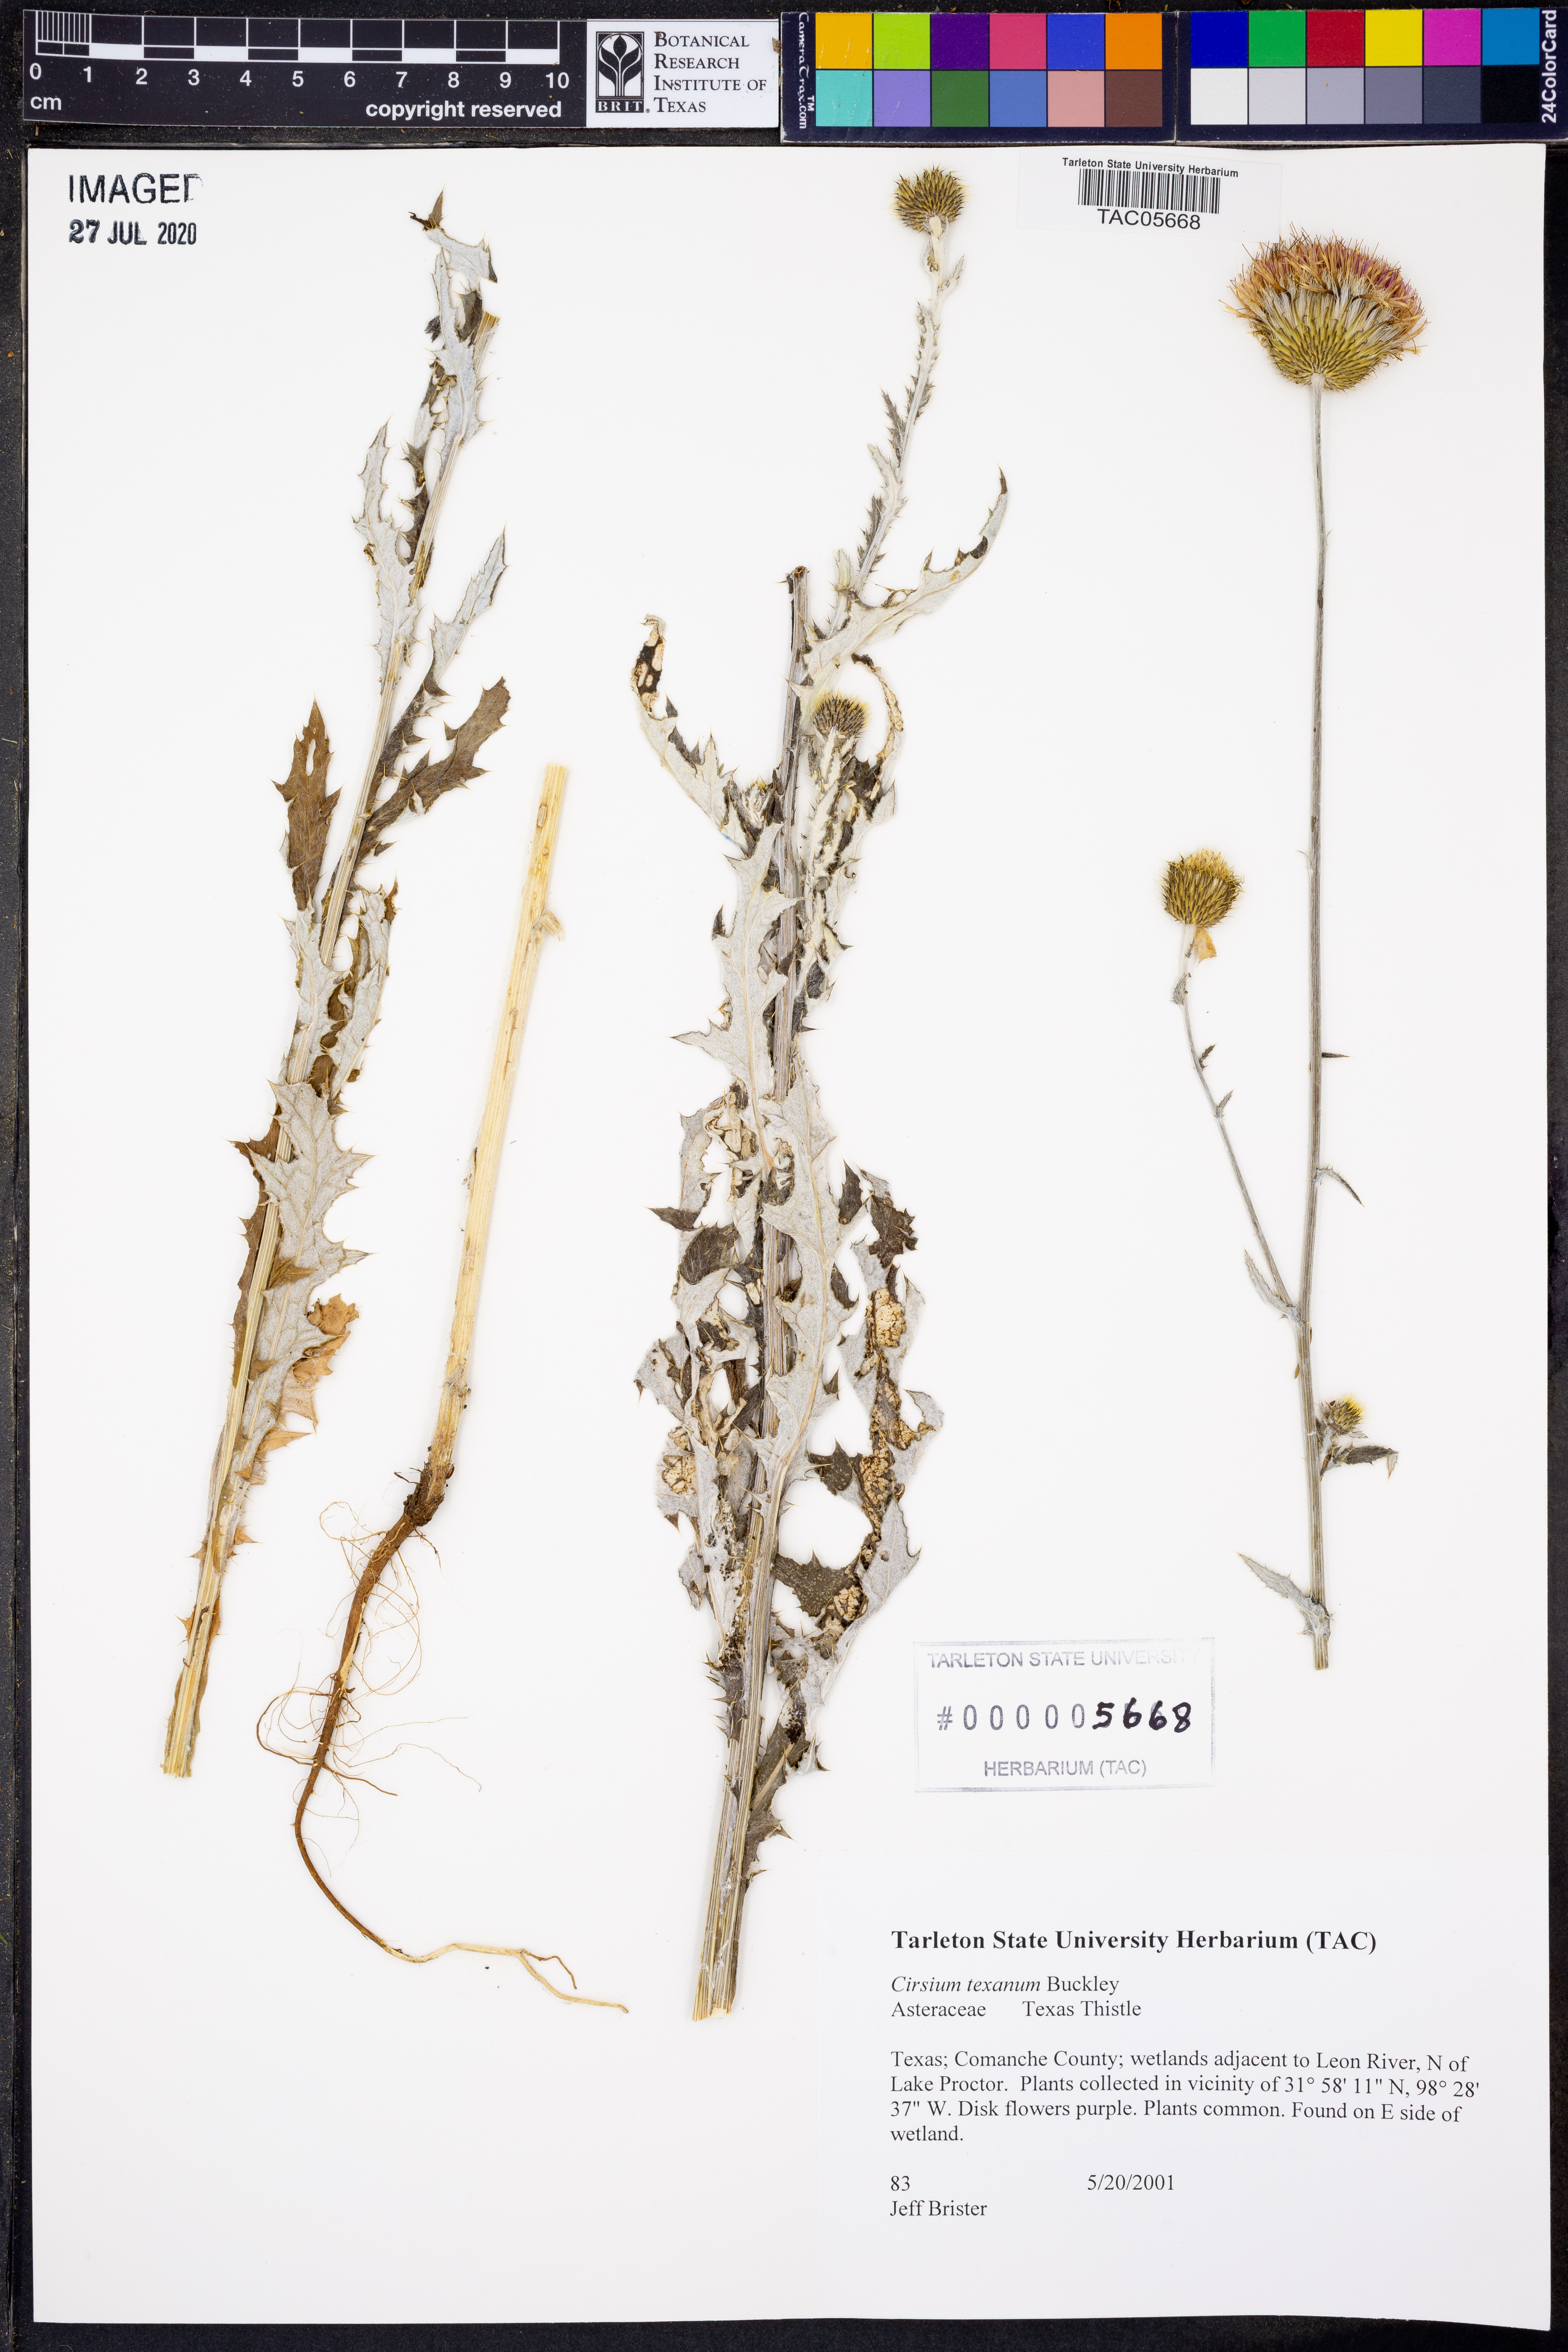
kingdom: Plantae
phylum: Tracheophyta
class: Magnoliopsida
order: Asterales
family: Asteraceae
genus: Cirsium
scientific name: Cirsium texanum
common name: Texas purple thistle
